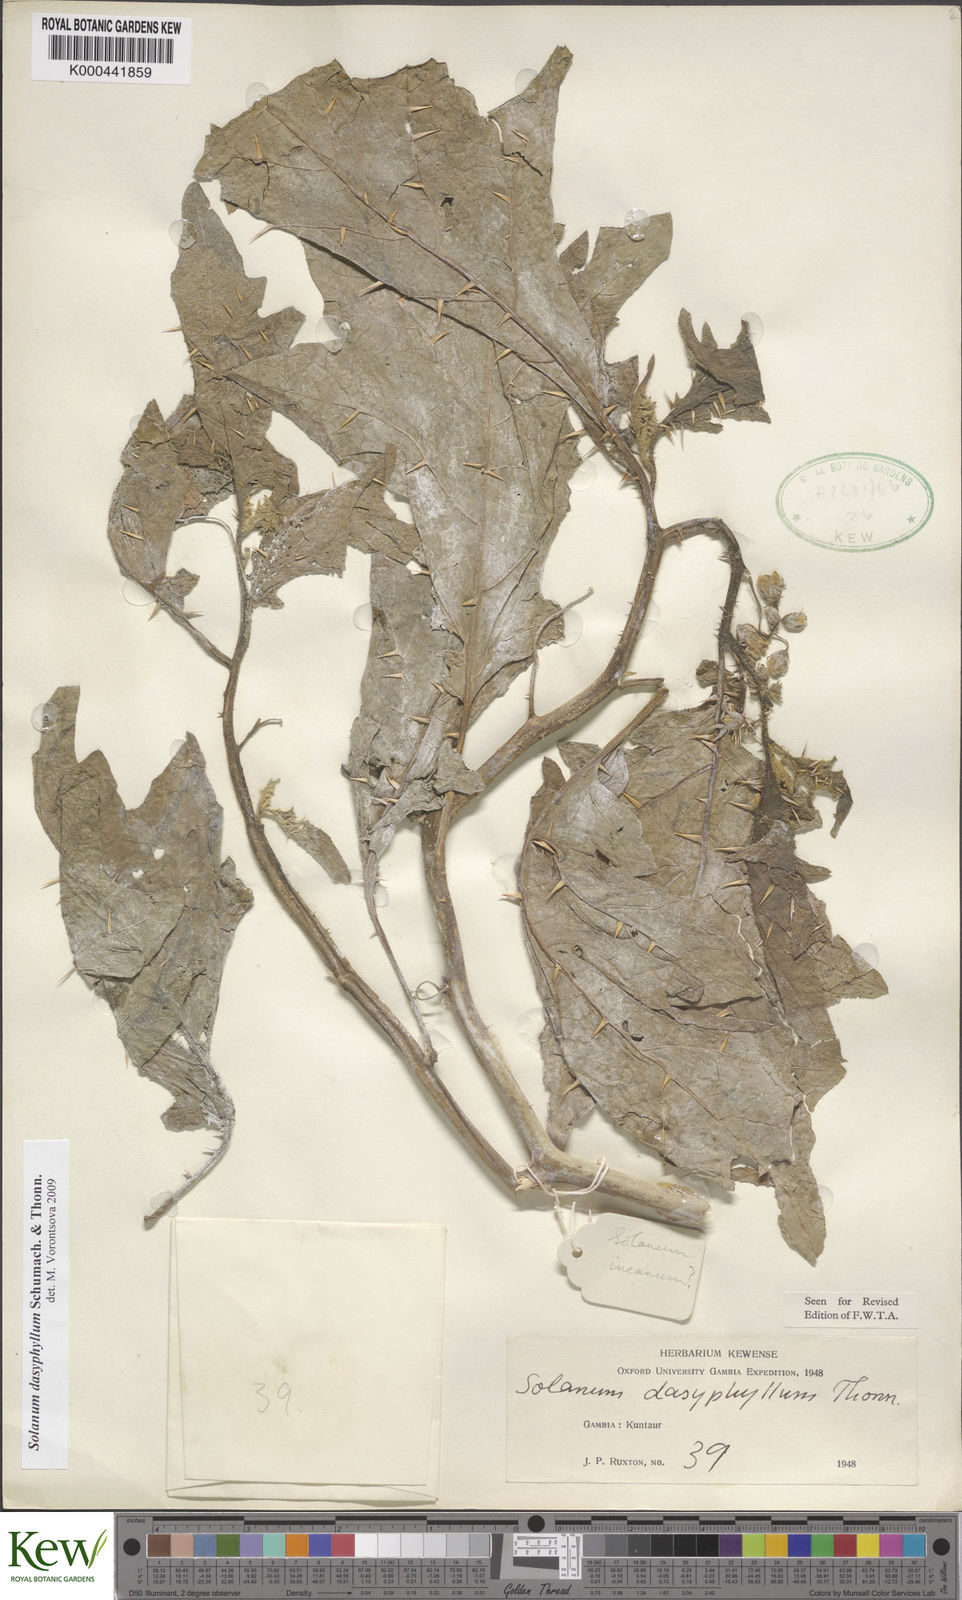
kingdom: Plantae
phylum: Tracheophyta
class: Magnoliopsida
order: Solanales
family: Solanaceae
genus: Solanum
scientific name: Solanum dasyphyllum
